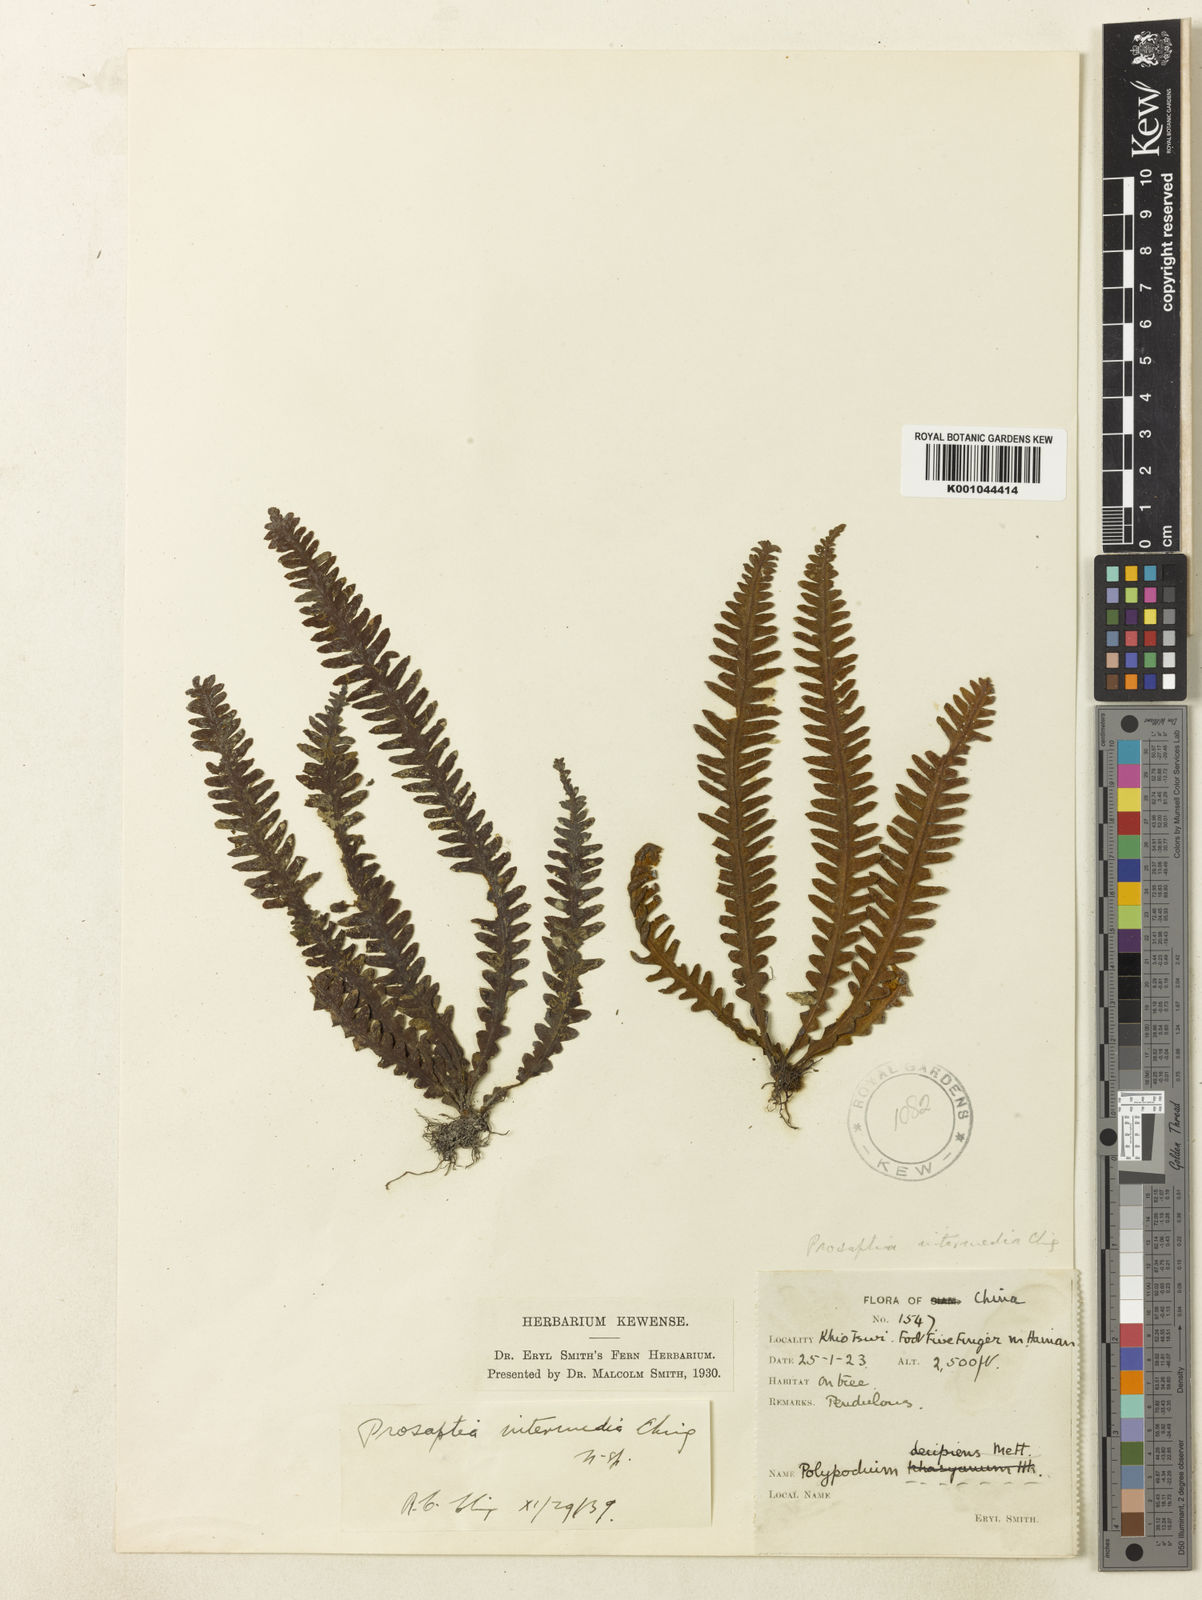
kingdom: Plantae
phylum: Tracheophyta
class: Polypodiopsida
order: Polypodiales
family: Polypodiaceae
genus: Prosaptia
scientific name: Prosaptia intermedia
